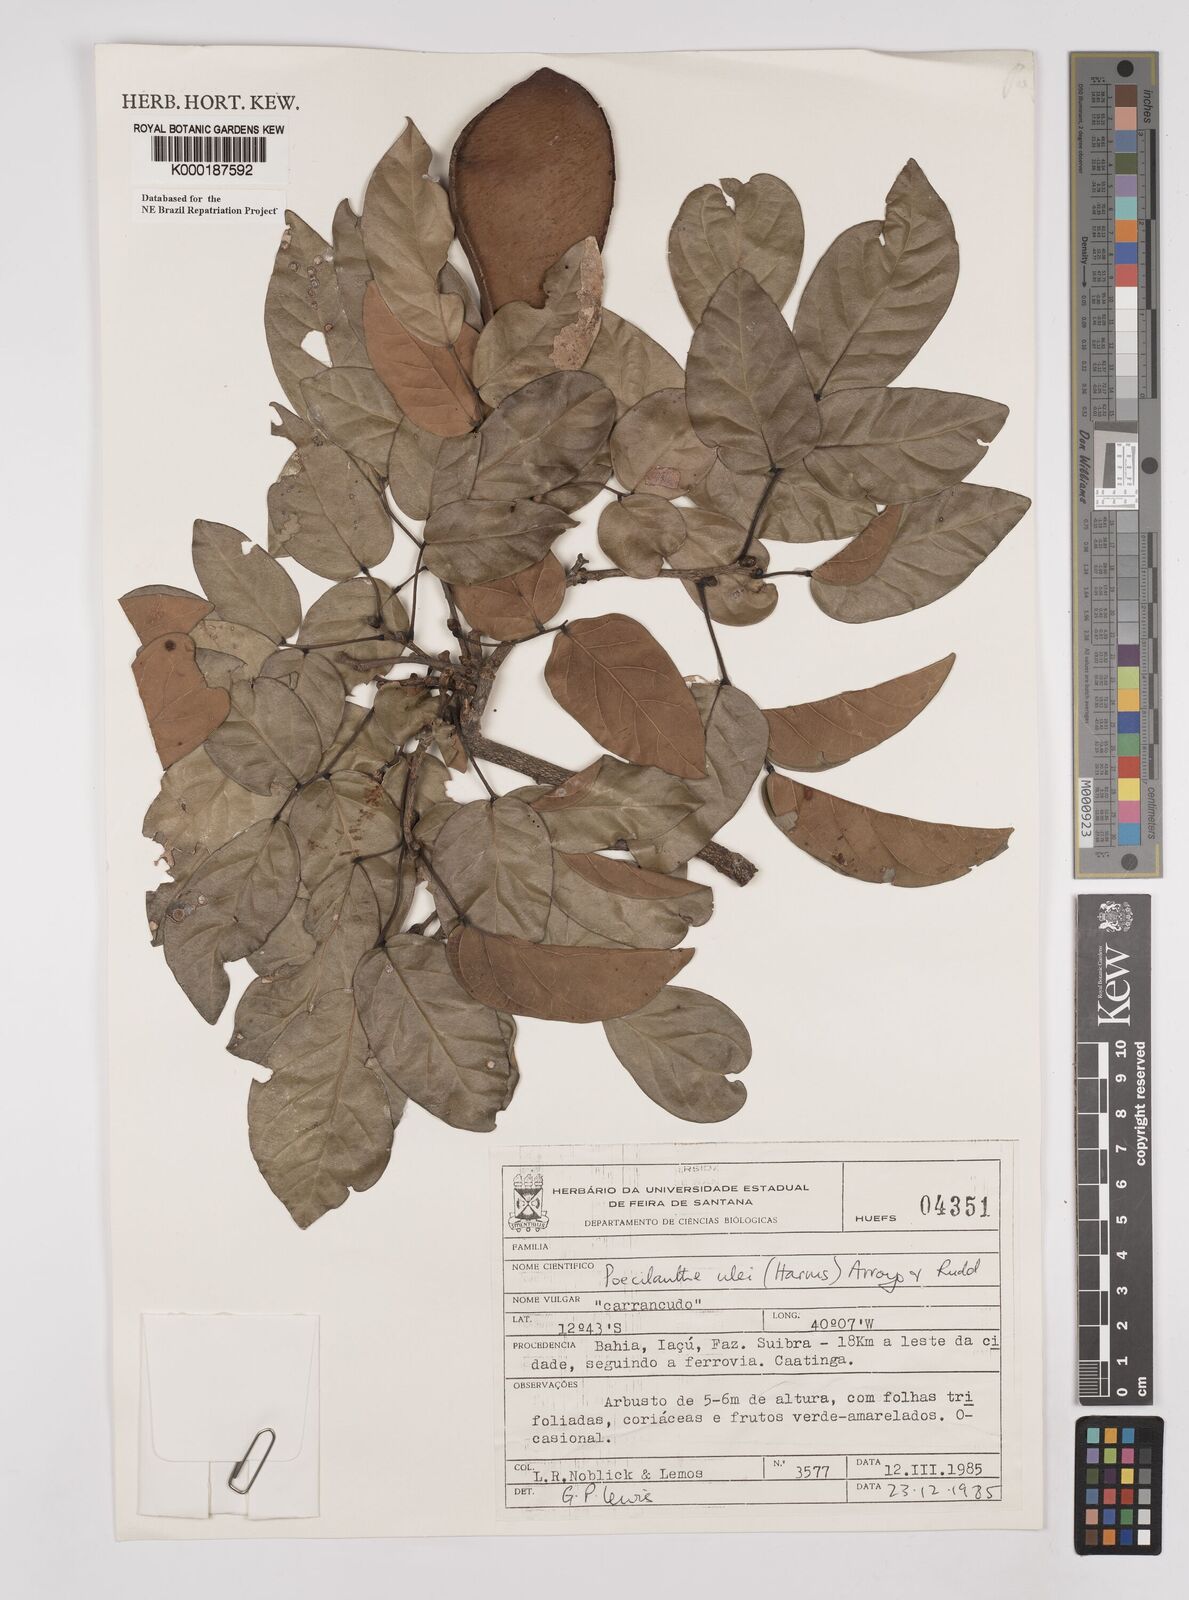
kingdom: Plantae
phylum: Tracheophyta
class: Magnoliopsida
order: Fabales
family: Fabaceae
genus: Poecilanthe
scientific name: Poecilanthe ulei
